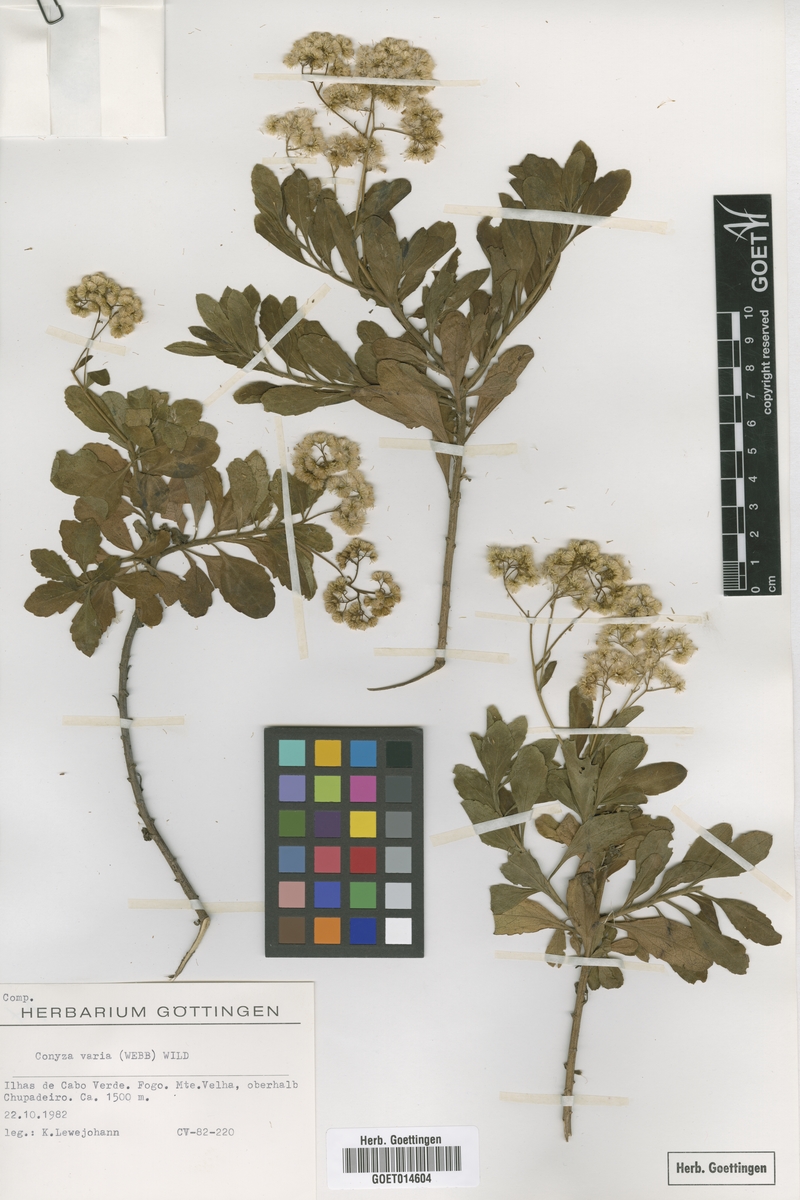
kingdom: Plantae
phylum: Tracheophyta
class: Magnoliopsida
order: Asterales
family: Asteraceae
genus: Nidorella
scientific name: Nidorella varia
